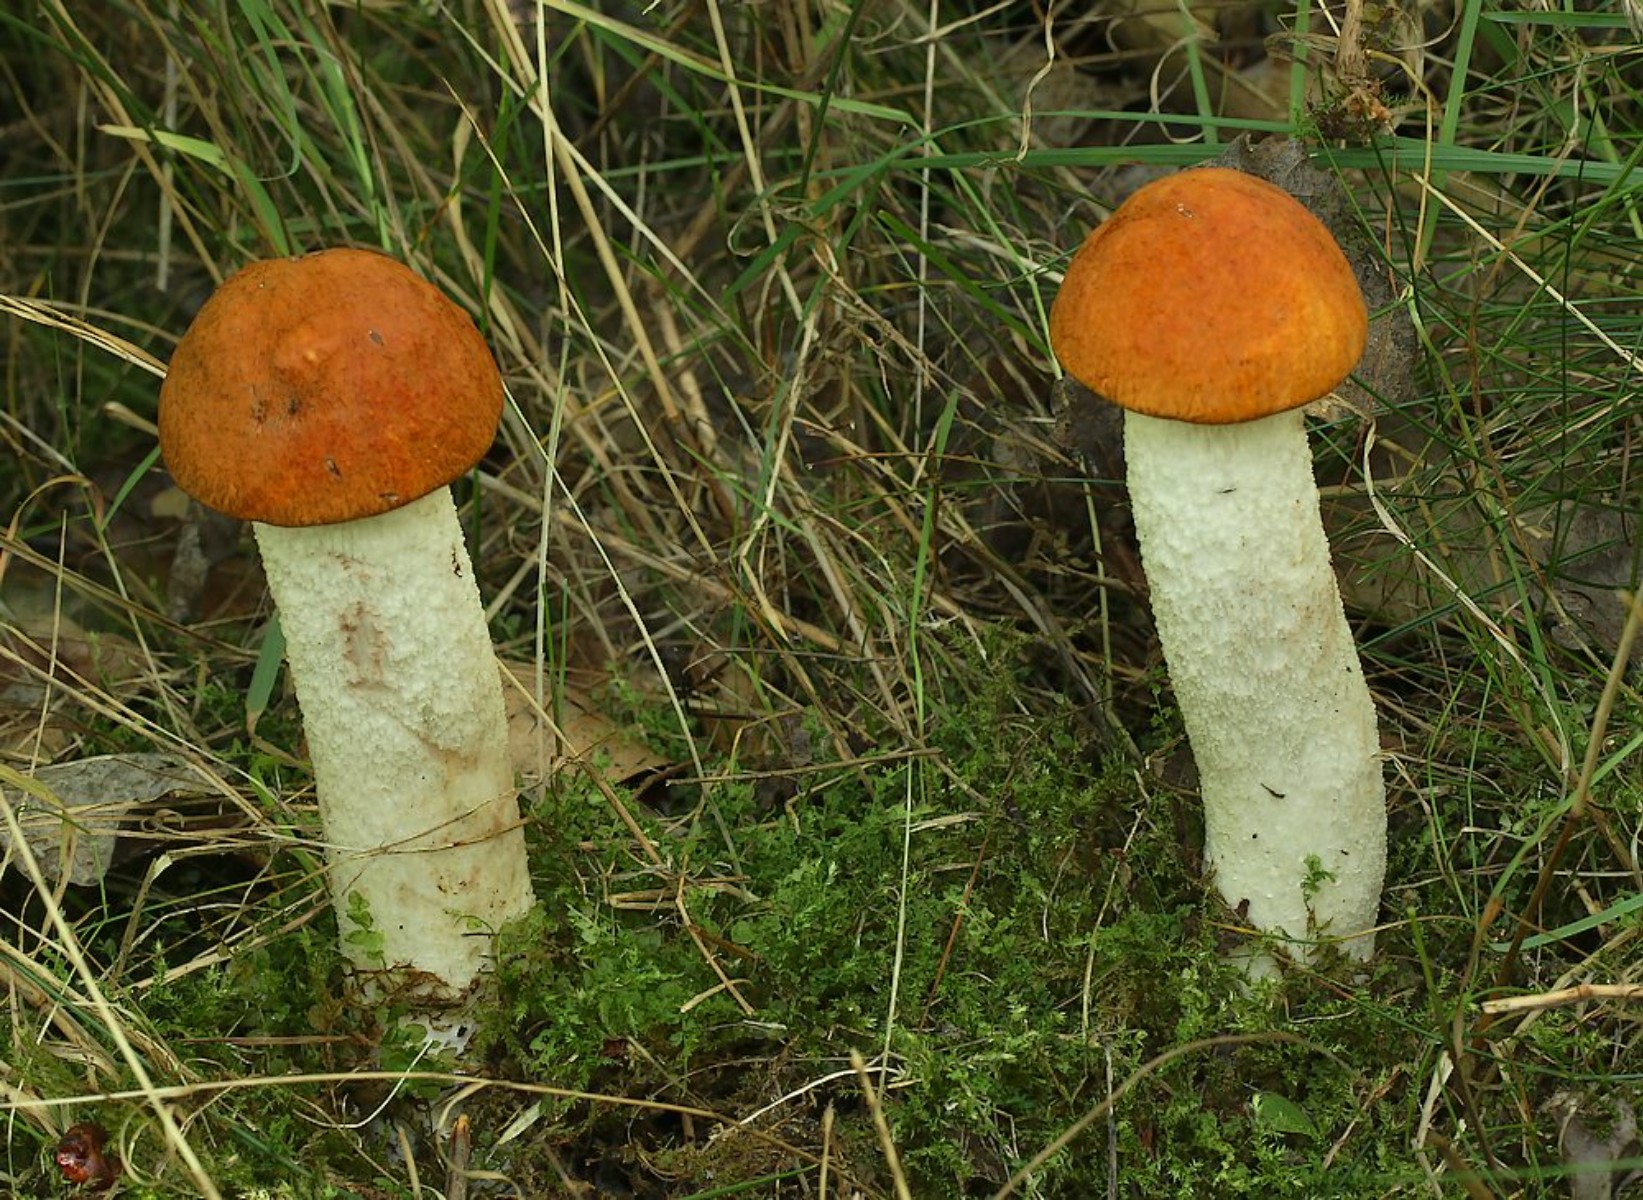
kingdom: Fungi
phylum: Basidiomycota
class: Agaricomycetes
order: Boletales
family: Boletaceae
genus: Leccinum
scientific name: Leccinum albostipitatum
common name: aspe-skælrørhat
